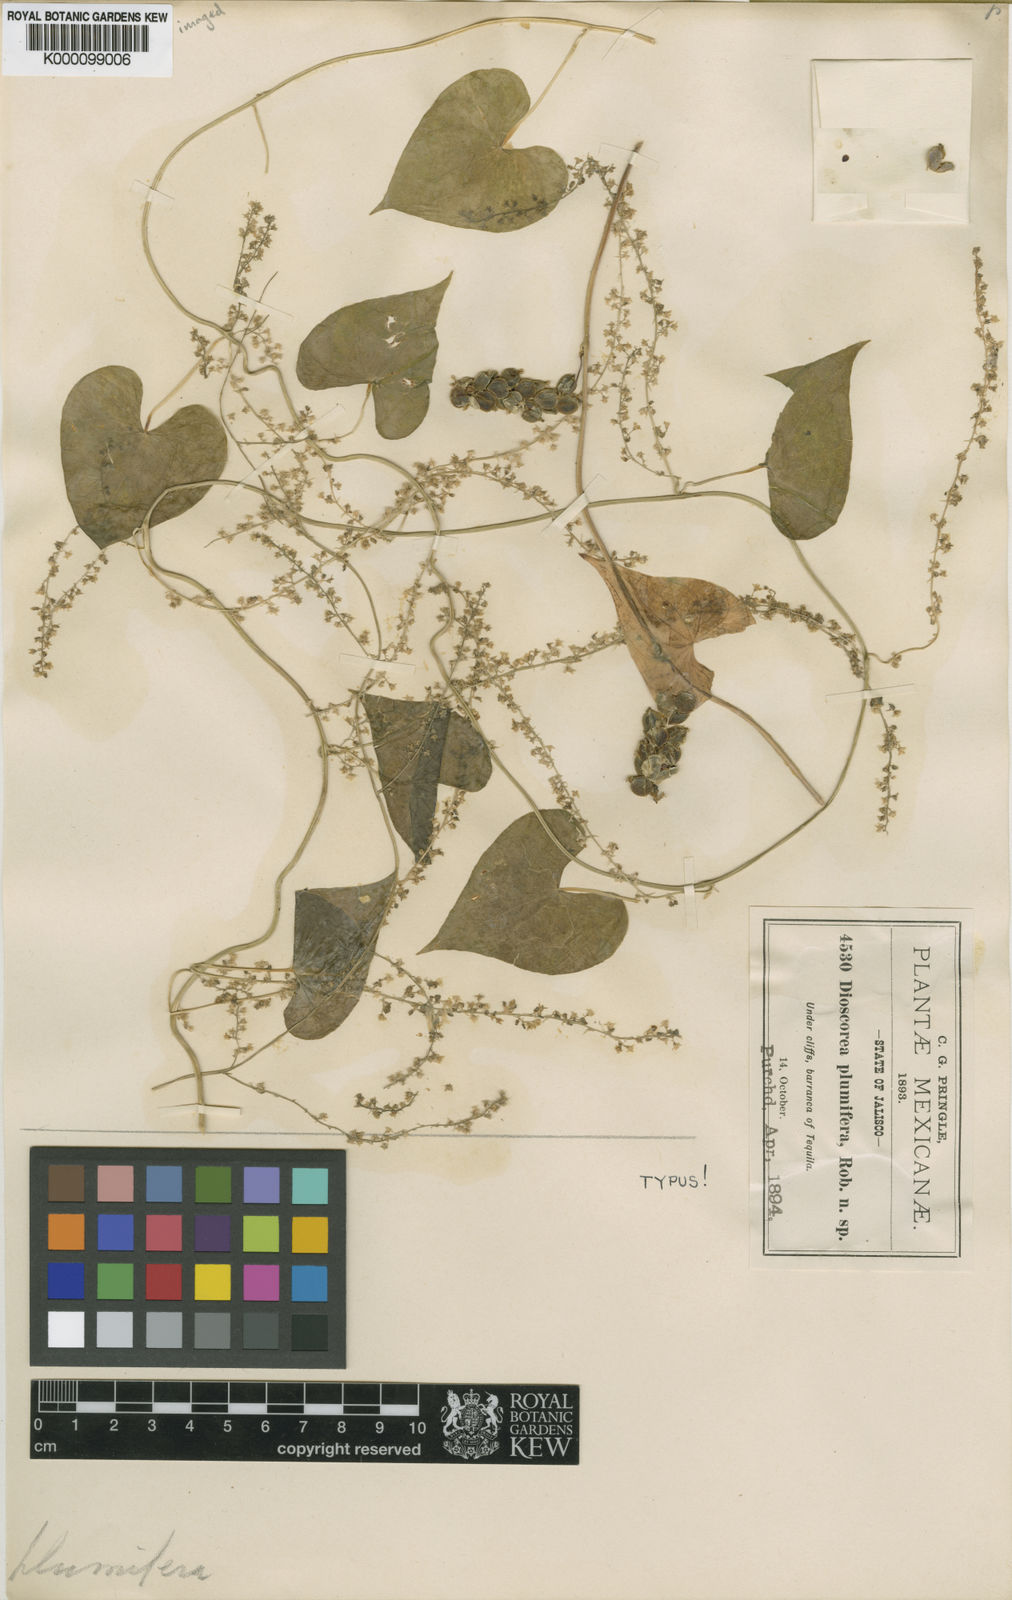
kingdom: Plantae
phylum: Tracheophyta
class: Liliopsida
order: Dioscoreales
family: Dioscoreaceae
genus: Dioscorea
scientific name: Dioscorea plumifera
